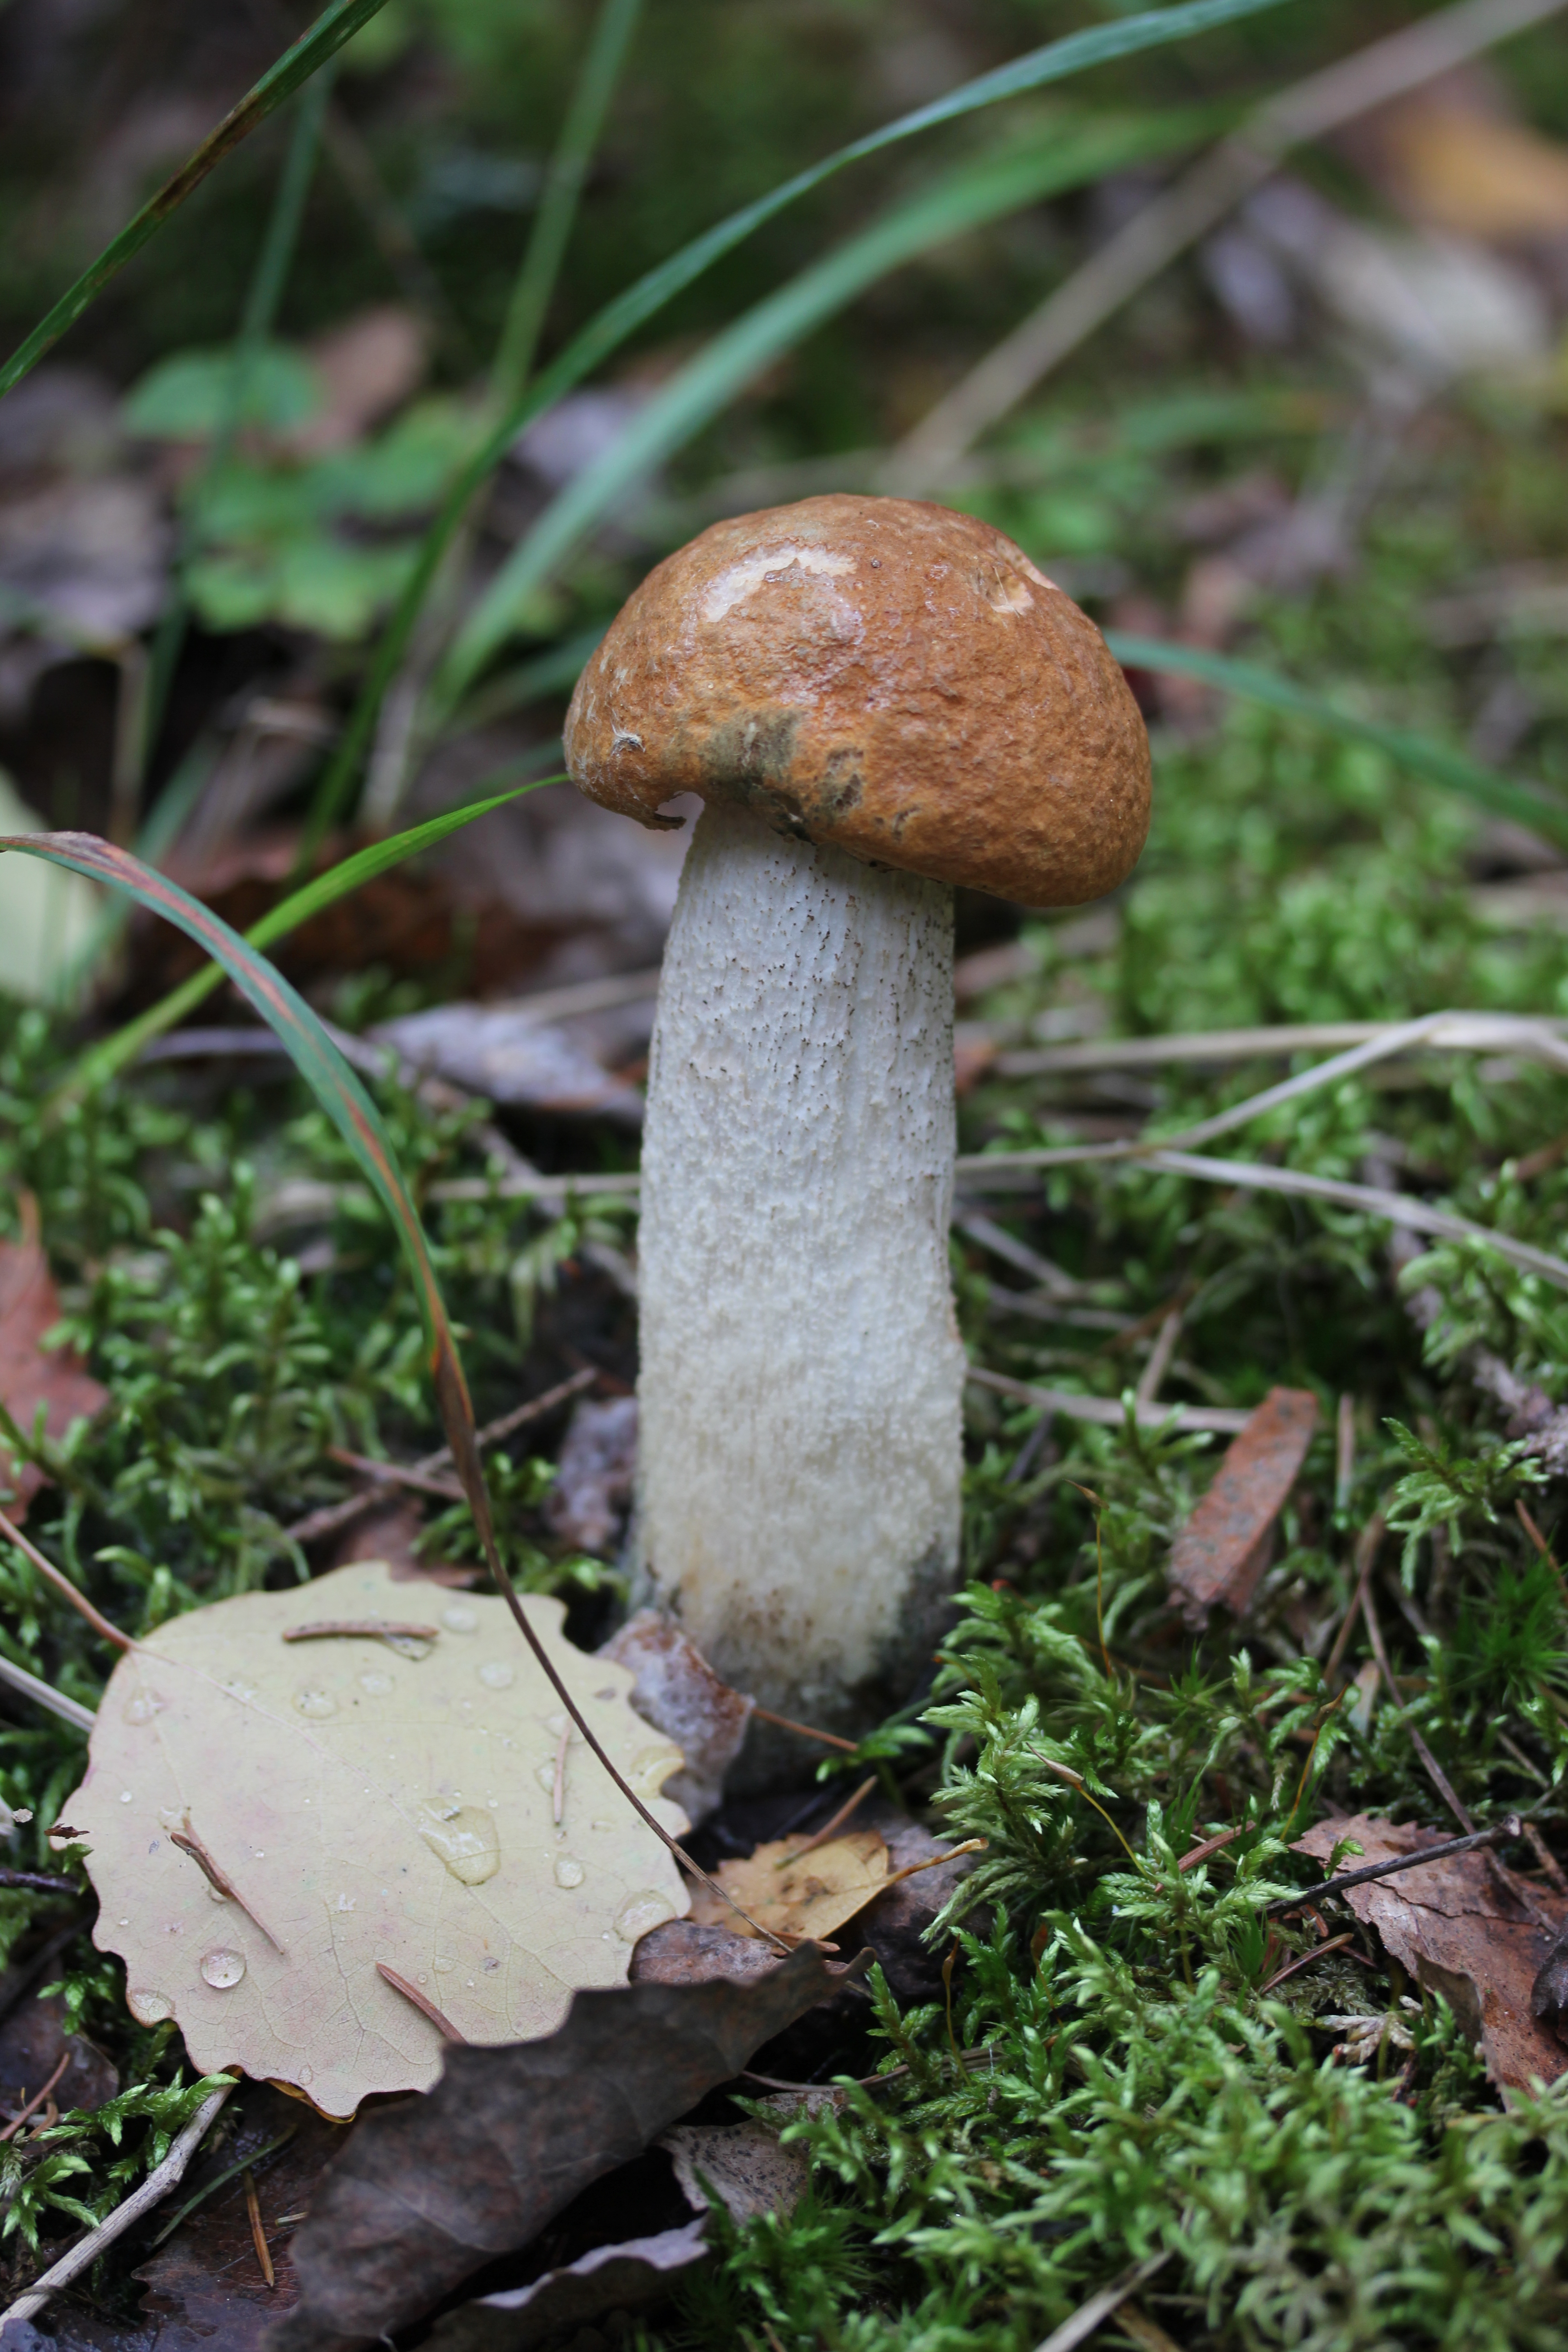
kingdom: Fungi
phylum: Basidiomycota
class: Agaricomycetes
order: Boletales
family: Boletaceae
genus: Leccinum
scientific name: Leccinum albostipitatum
